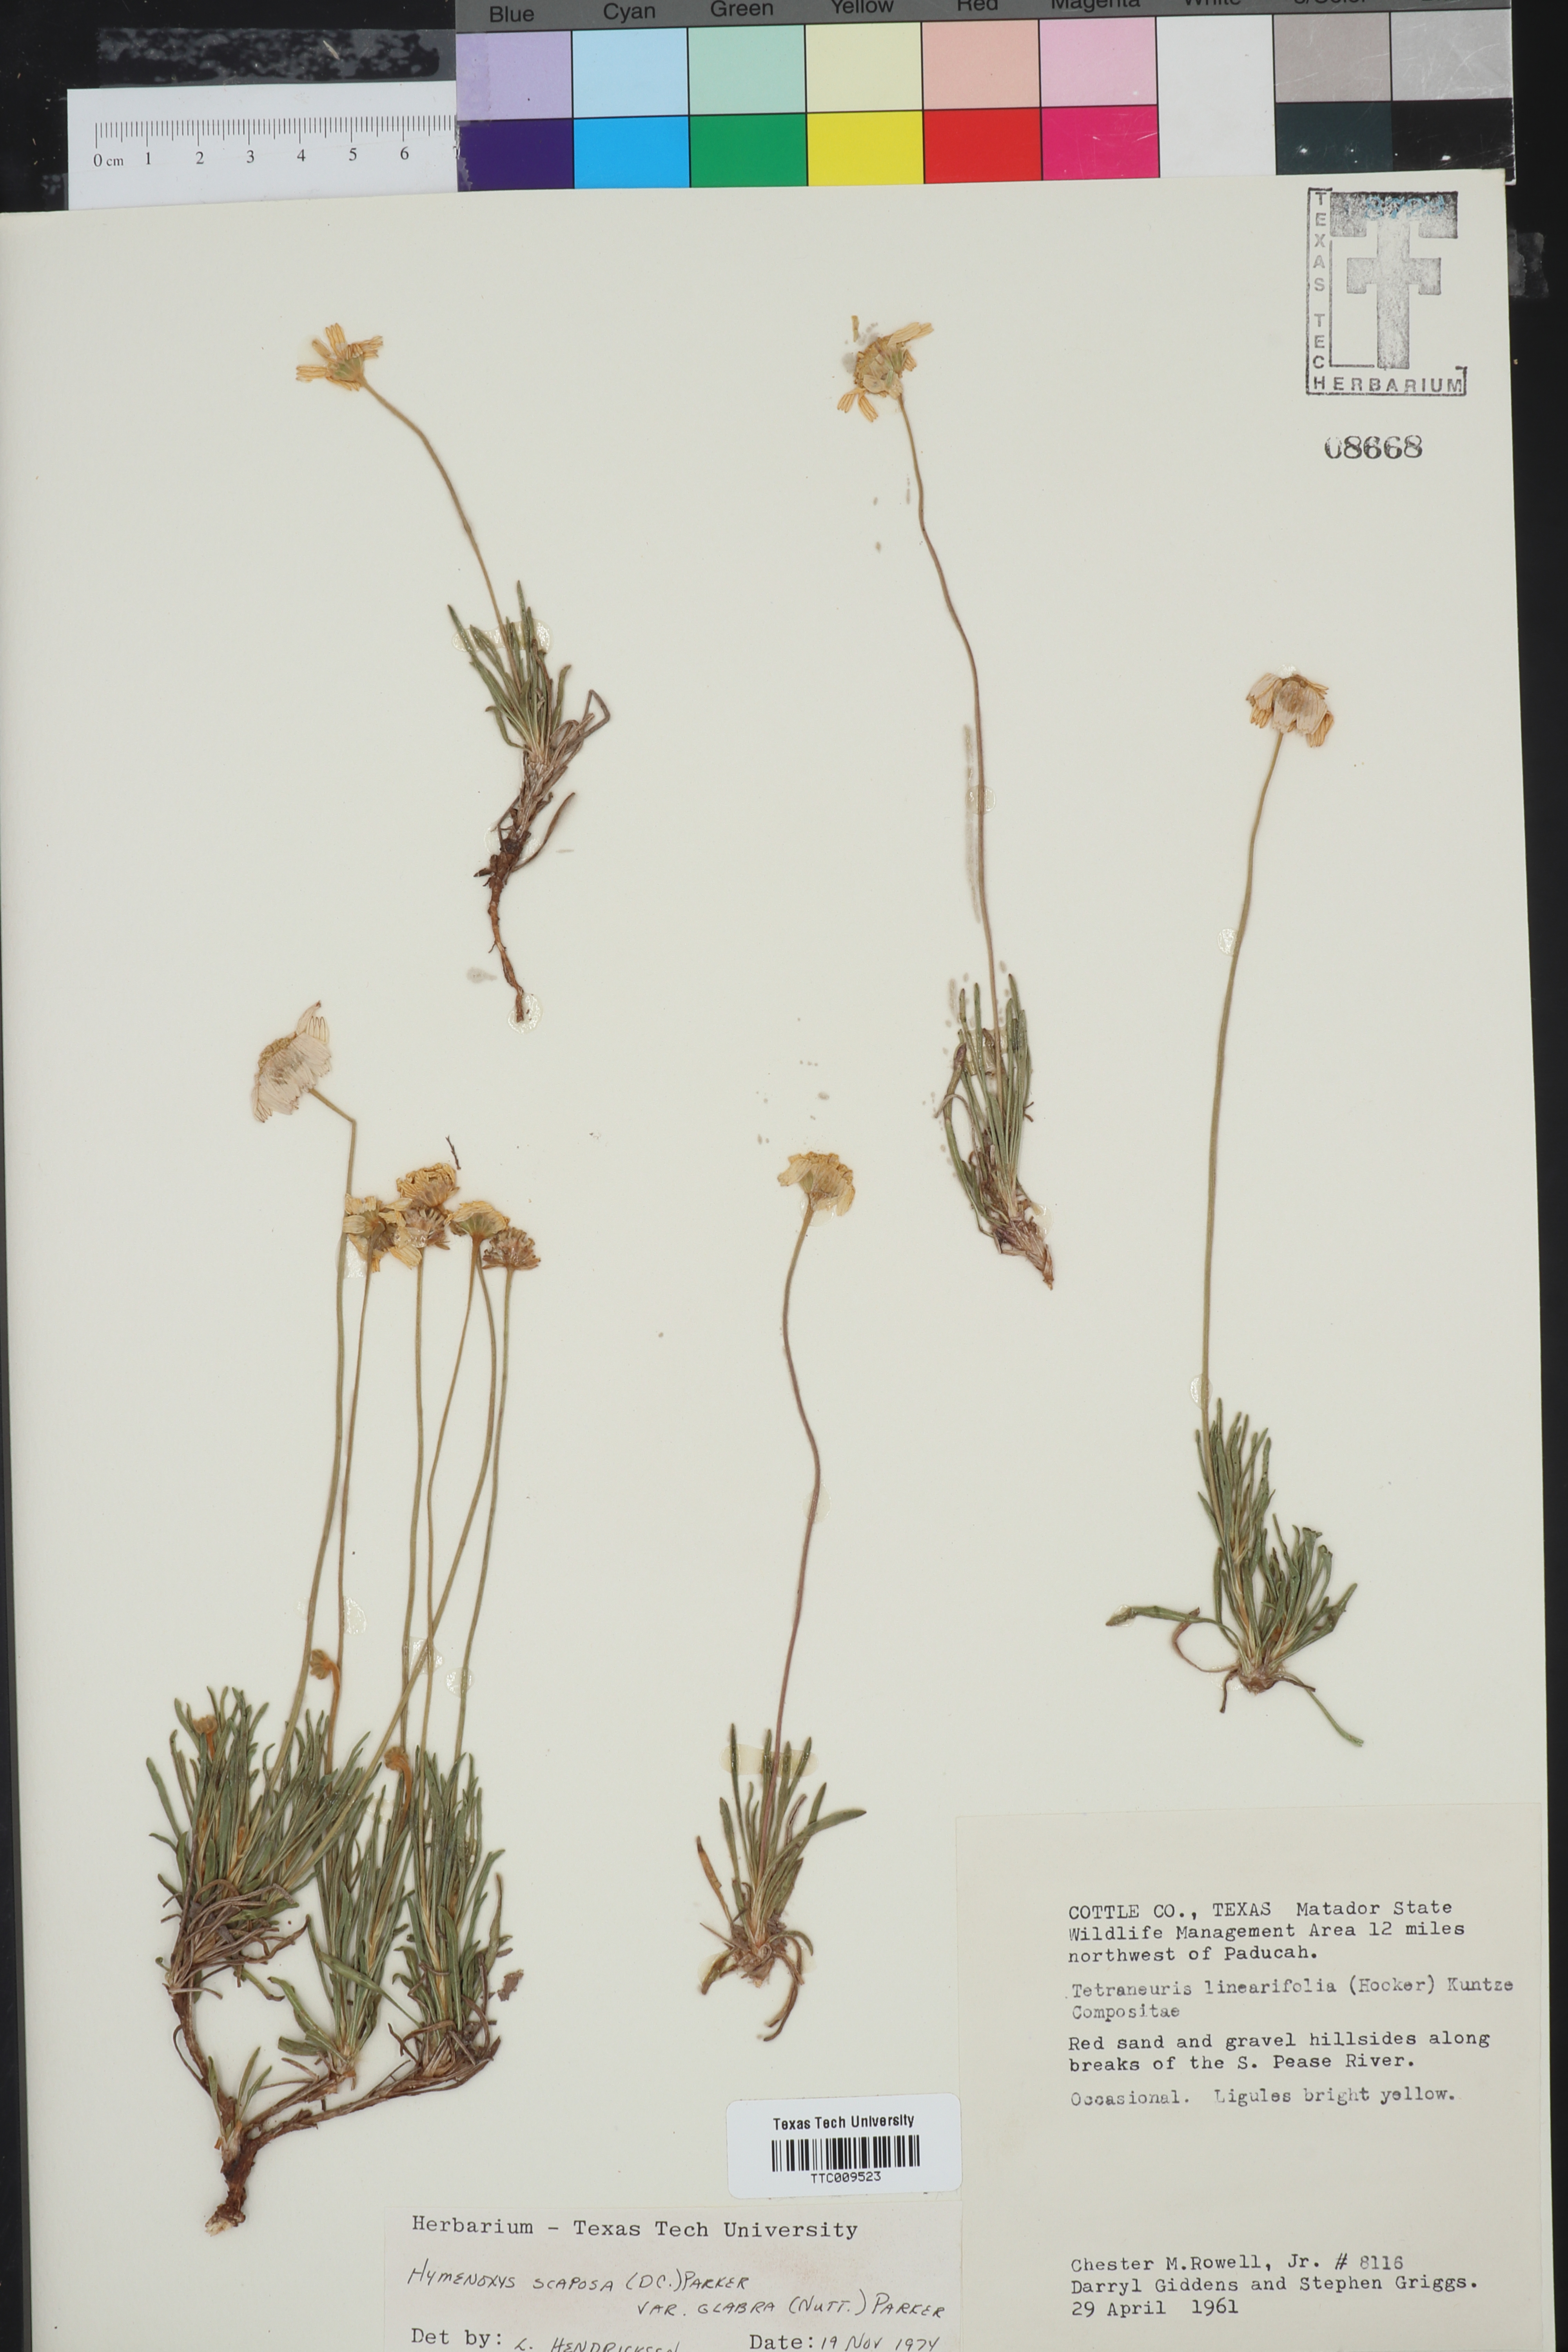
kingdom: Plantae
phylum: Tracheophyta
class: Magnoliopsida
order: Asterales
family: Asteraceae
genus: Tetraneuris
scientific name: Tetraneuris scaposa
